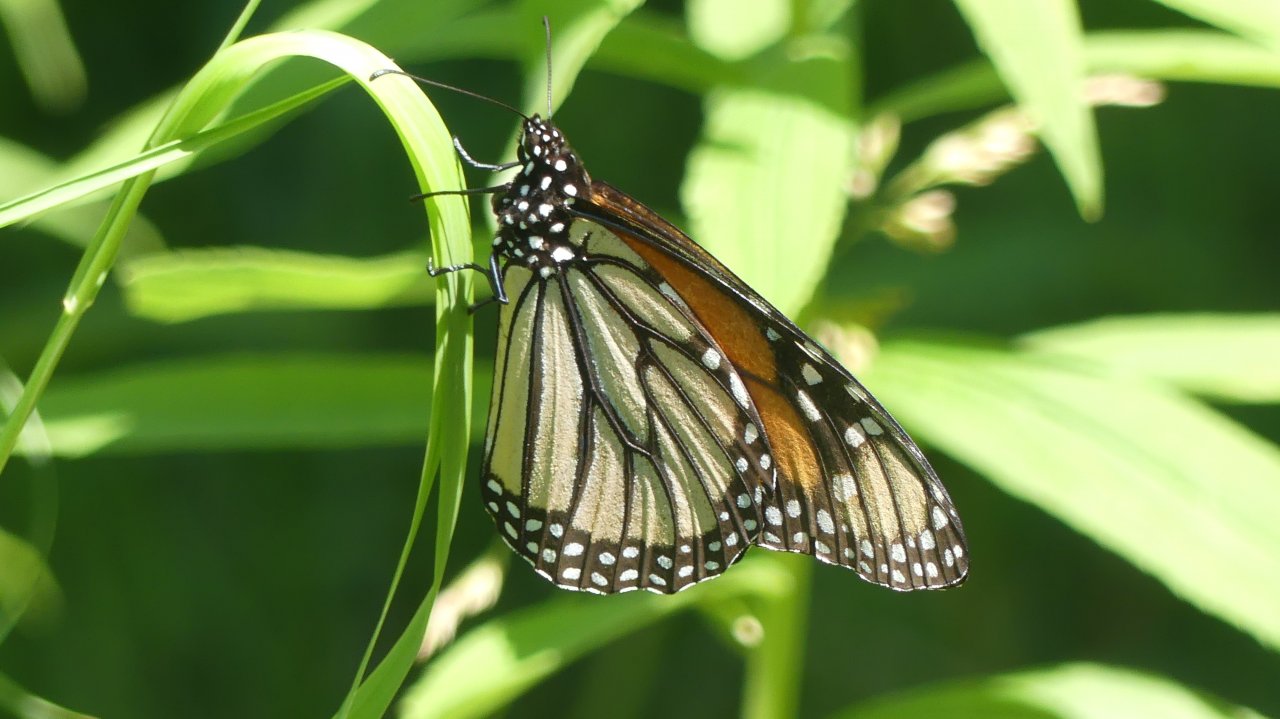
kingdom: Animalia
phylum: Arthropoda
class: Insecta
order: Lepidoptera
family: Nymphalidae
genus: Danaus
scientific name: Danaus plexippus
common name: Monarch
